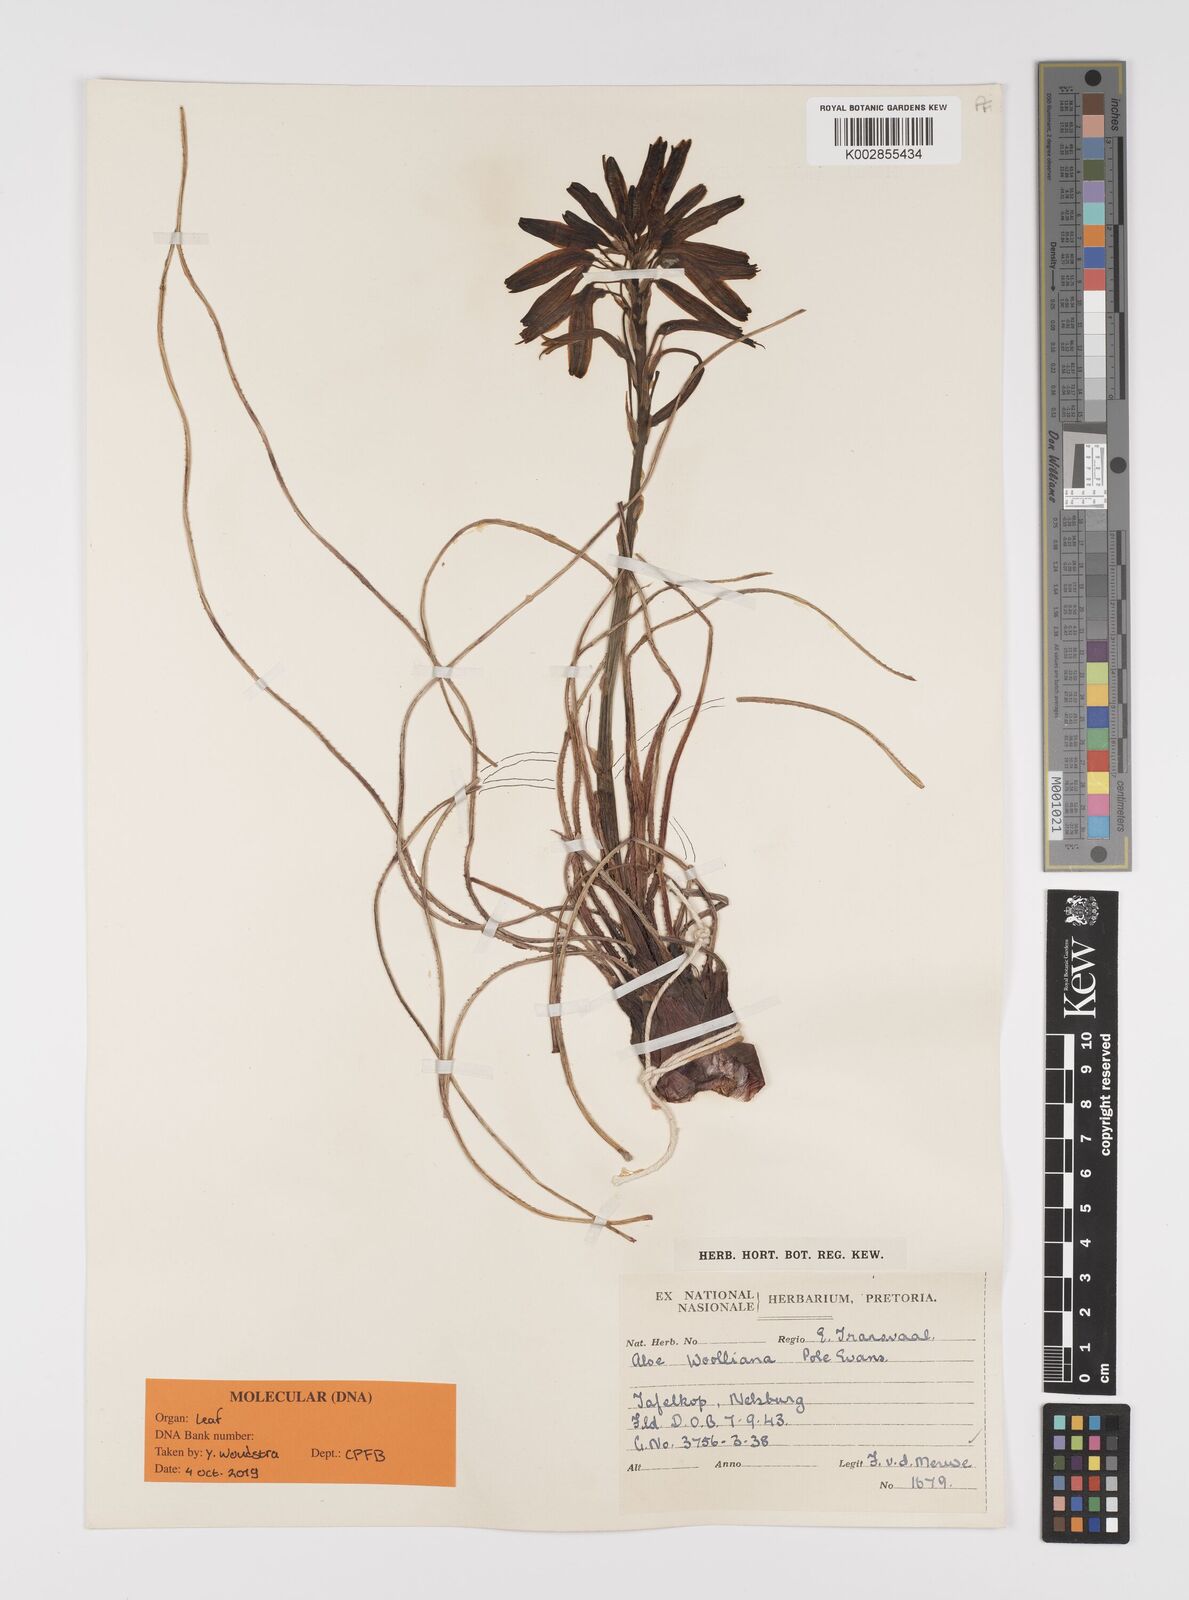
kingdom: Plantae
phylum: Tracheophyta
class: Liliopsida
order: Asparagales
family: Asphodelaceae
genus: Aloe
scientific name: Aloe chortolirioides
